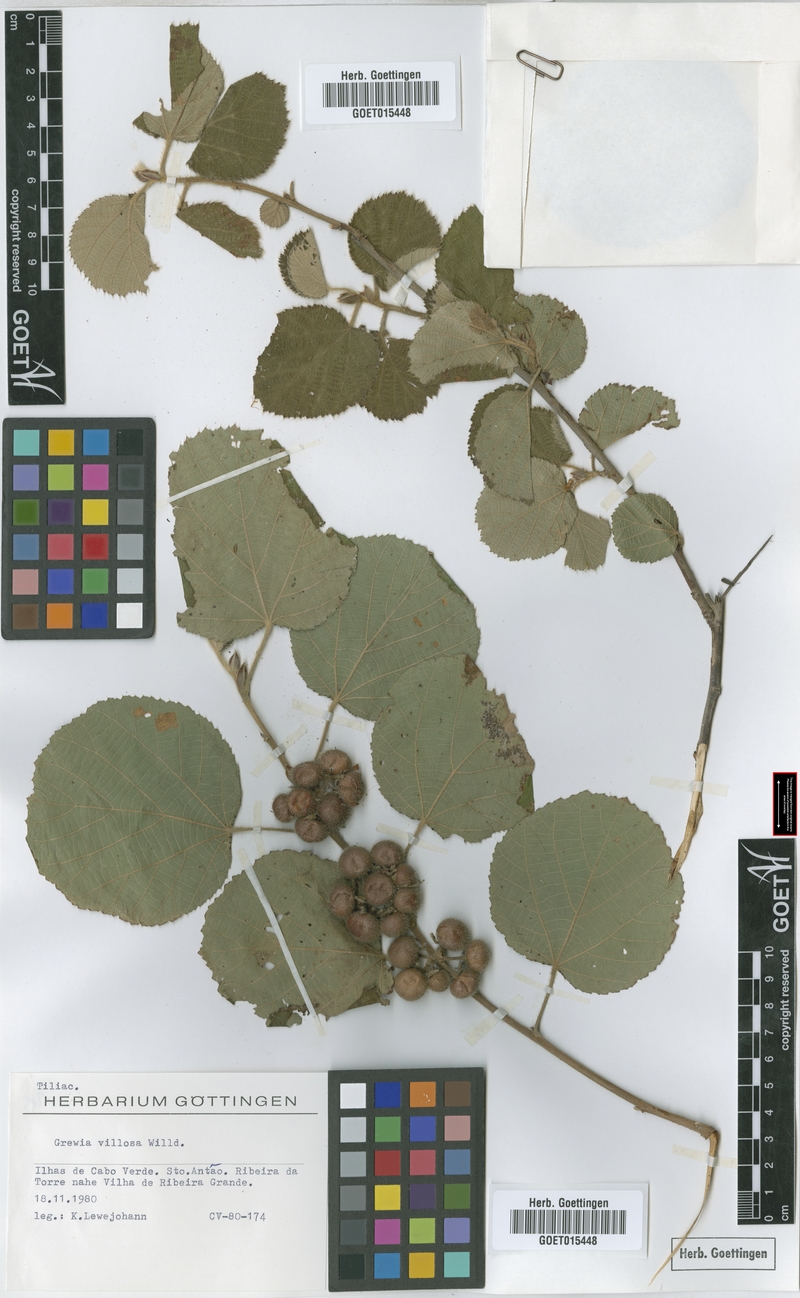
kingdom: Plantae
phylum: Tracheophyta
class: Magnoliopsida
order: Malvales
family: Malvaceae
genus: Grewia
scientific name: Grewia villosa
